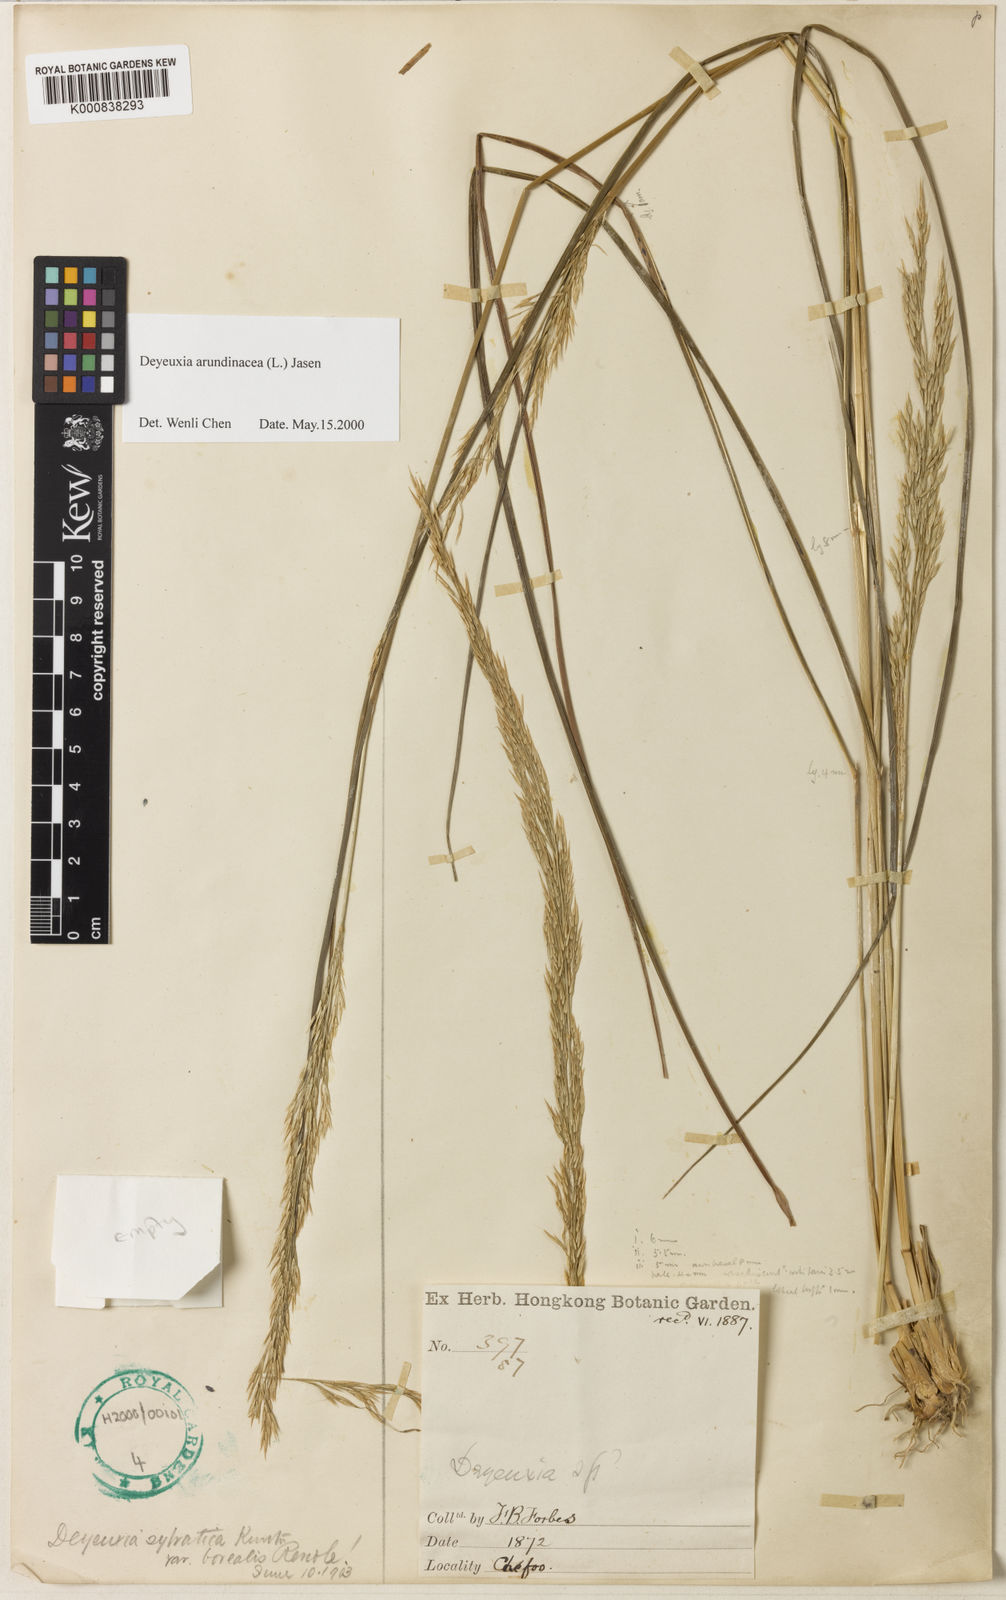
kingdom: Plantae
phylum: Tracheophyta
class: Liliopsida
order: Poales
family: Poaceae
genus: Calamagrostis
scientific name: Calamagrostis arundinacea
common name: Metskastik
